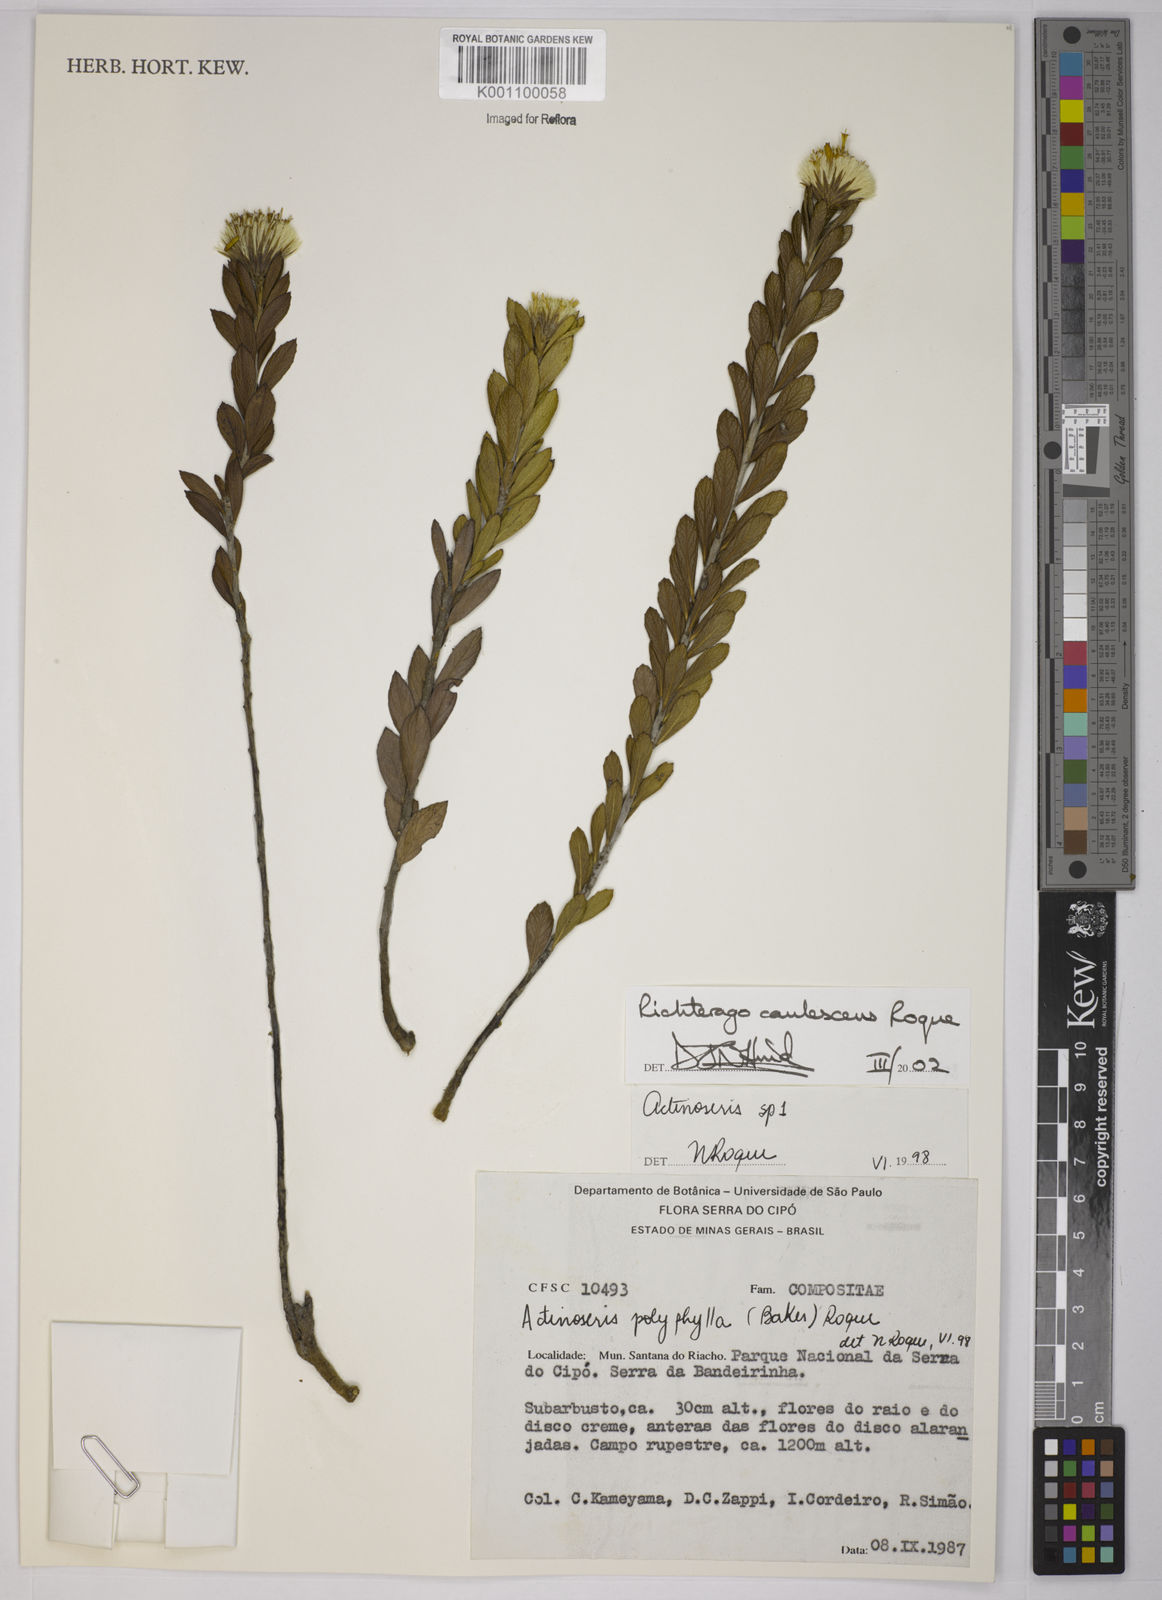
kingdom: Plantae
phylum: Tracheophyta
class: Magnoliopsida
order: Asterales
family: Asteraceae
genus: Richterago
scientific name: Richterago caulescens
